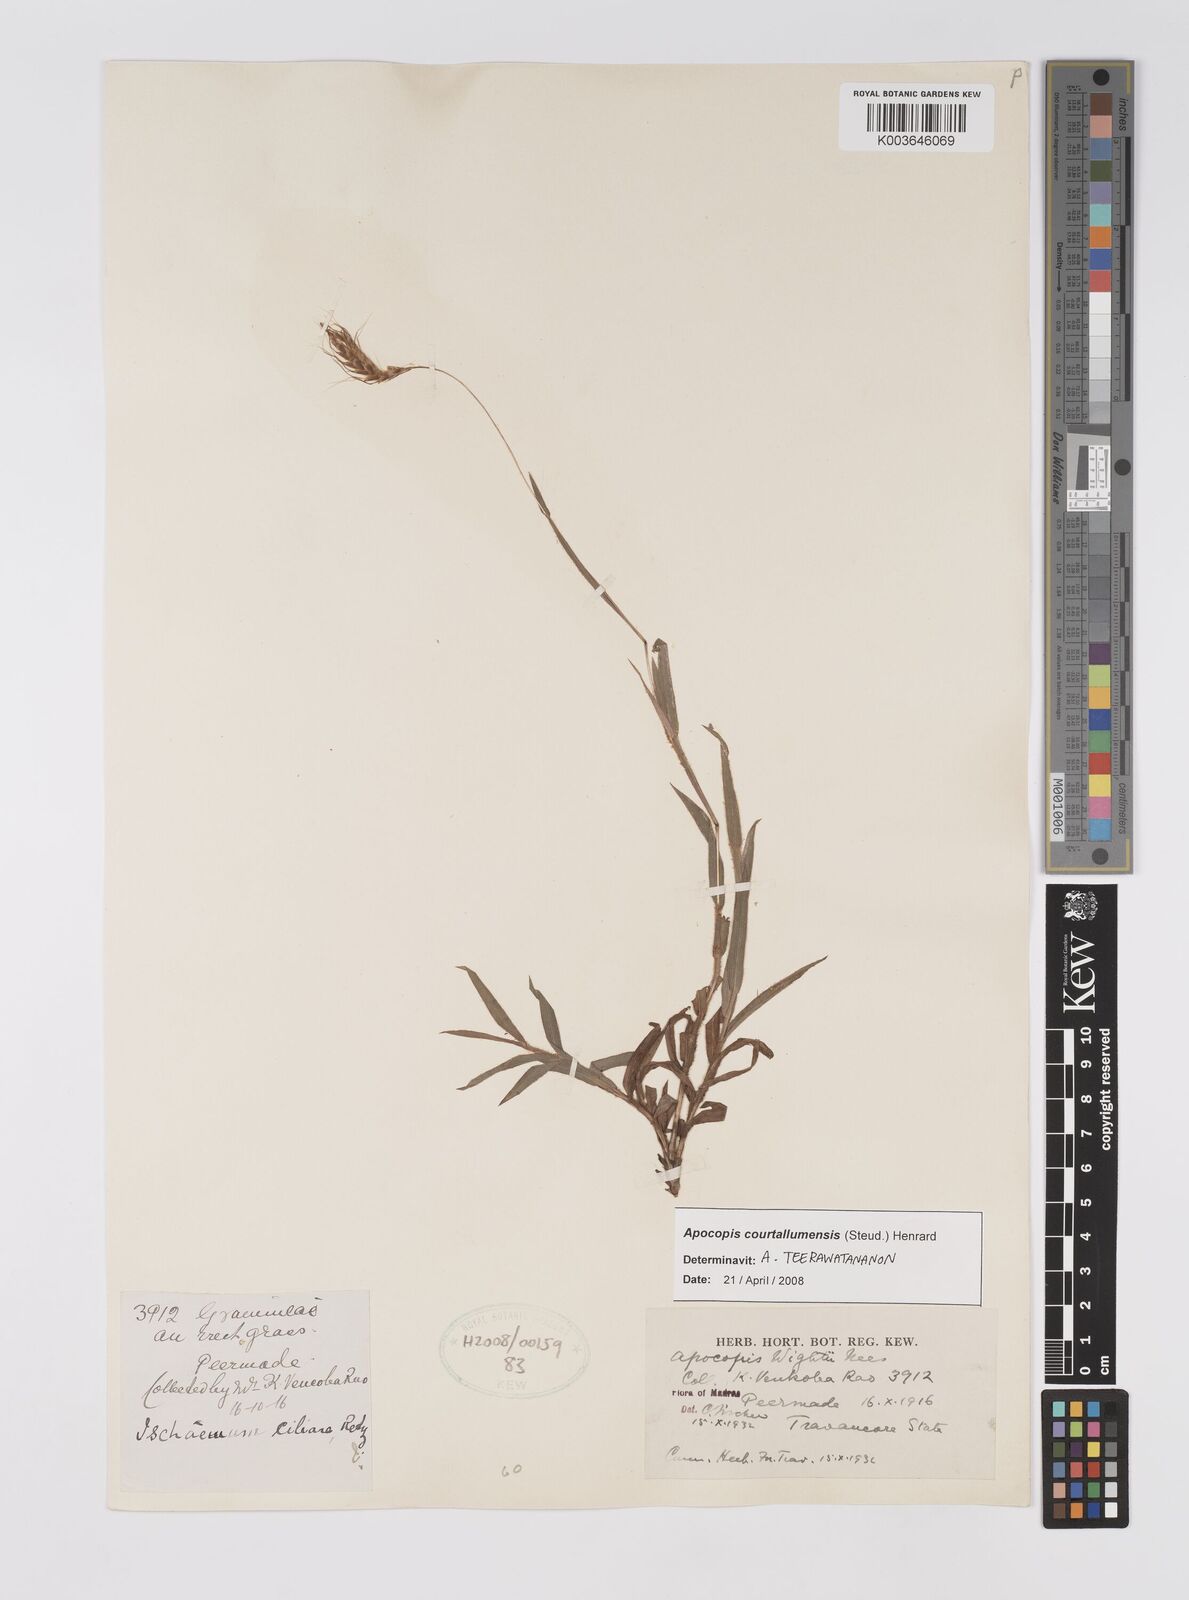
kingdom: Plantae
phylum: Tracheophyta
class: Liliopsida
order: Poales
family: Poaceae
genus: Apocopis
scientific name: Apocopis courtallumensis
